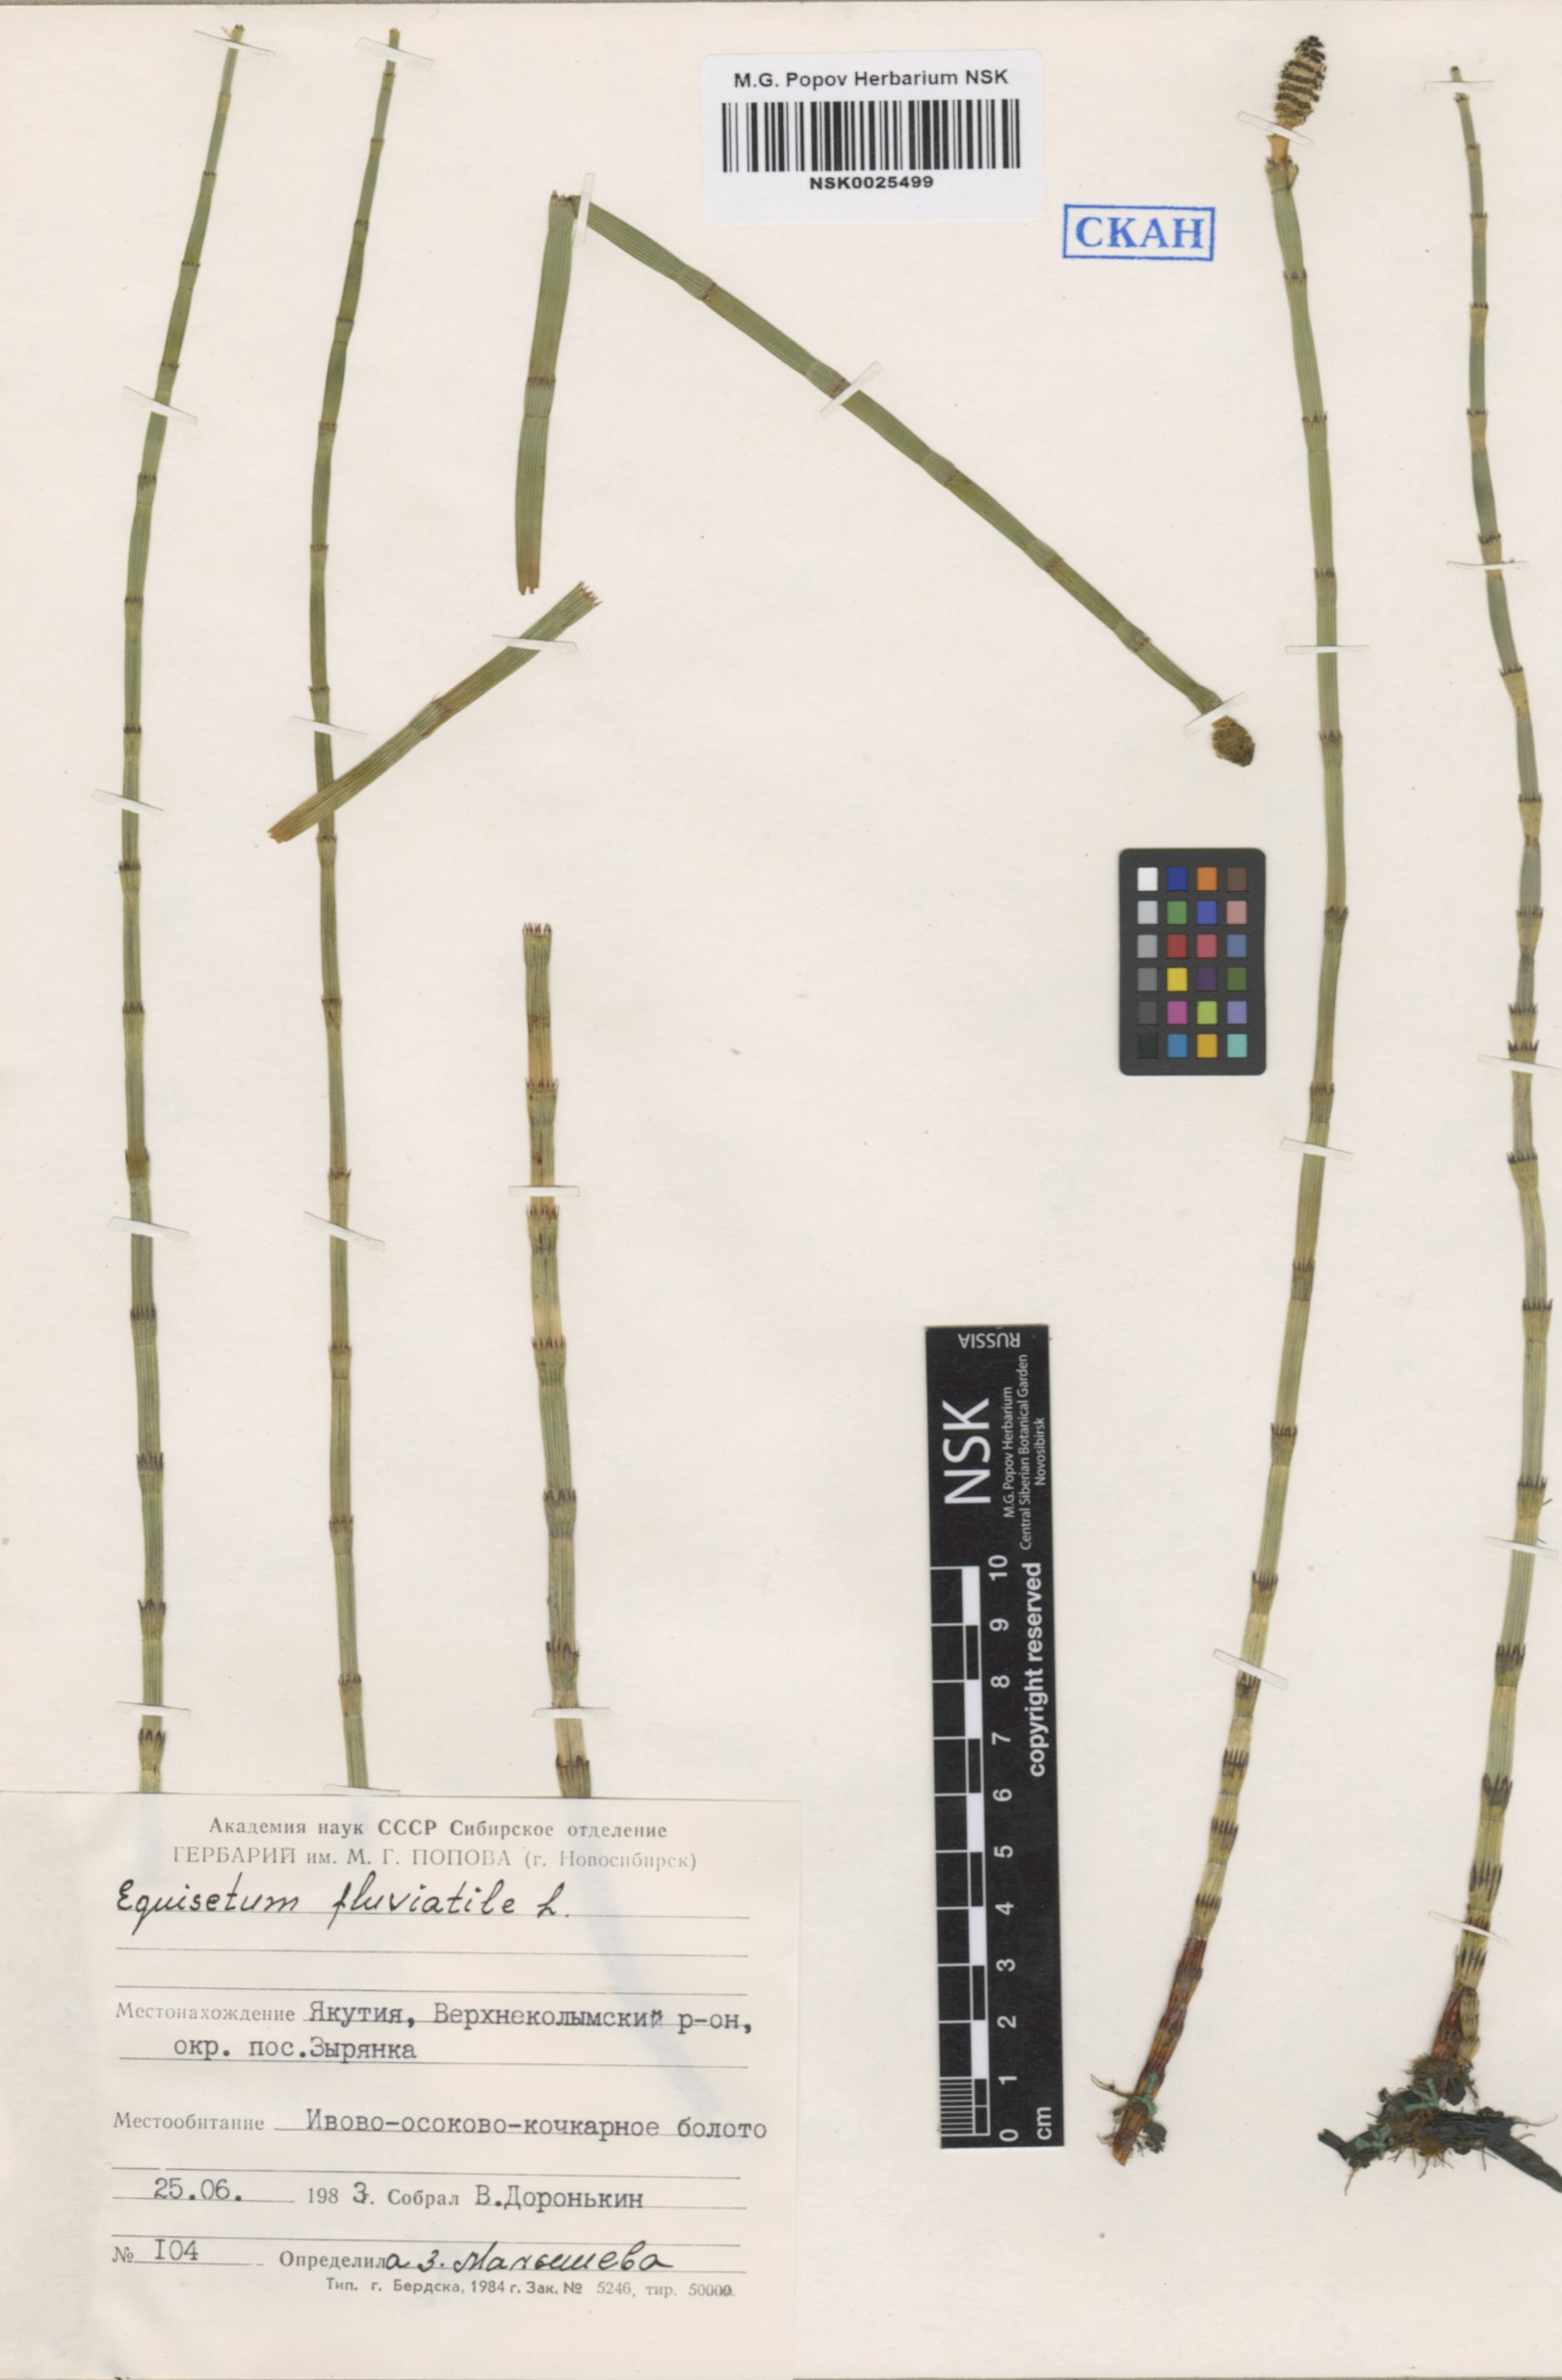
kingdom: Plantae
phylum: Tracheophyta
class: Polypodiopsida
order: Equisetales
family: Equisetaceae
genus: Equisetum
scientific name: Equisetum fluviatile
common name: Water horsetail
